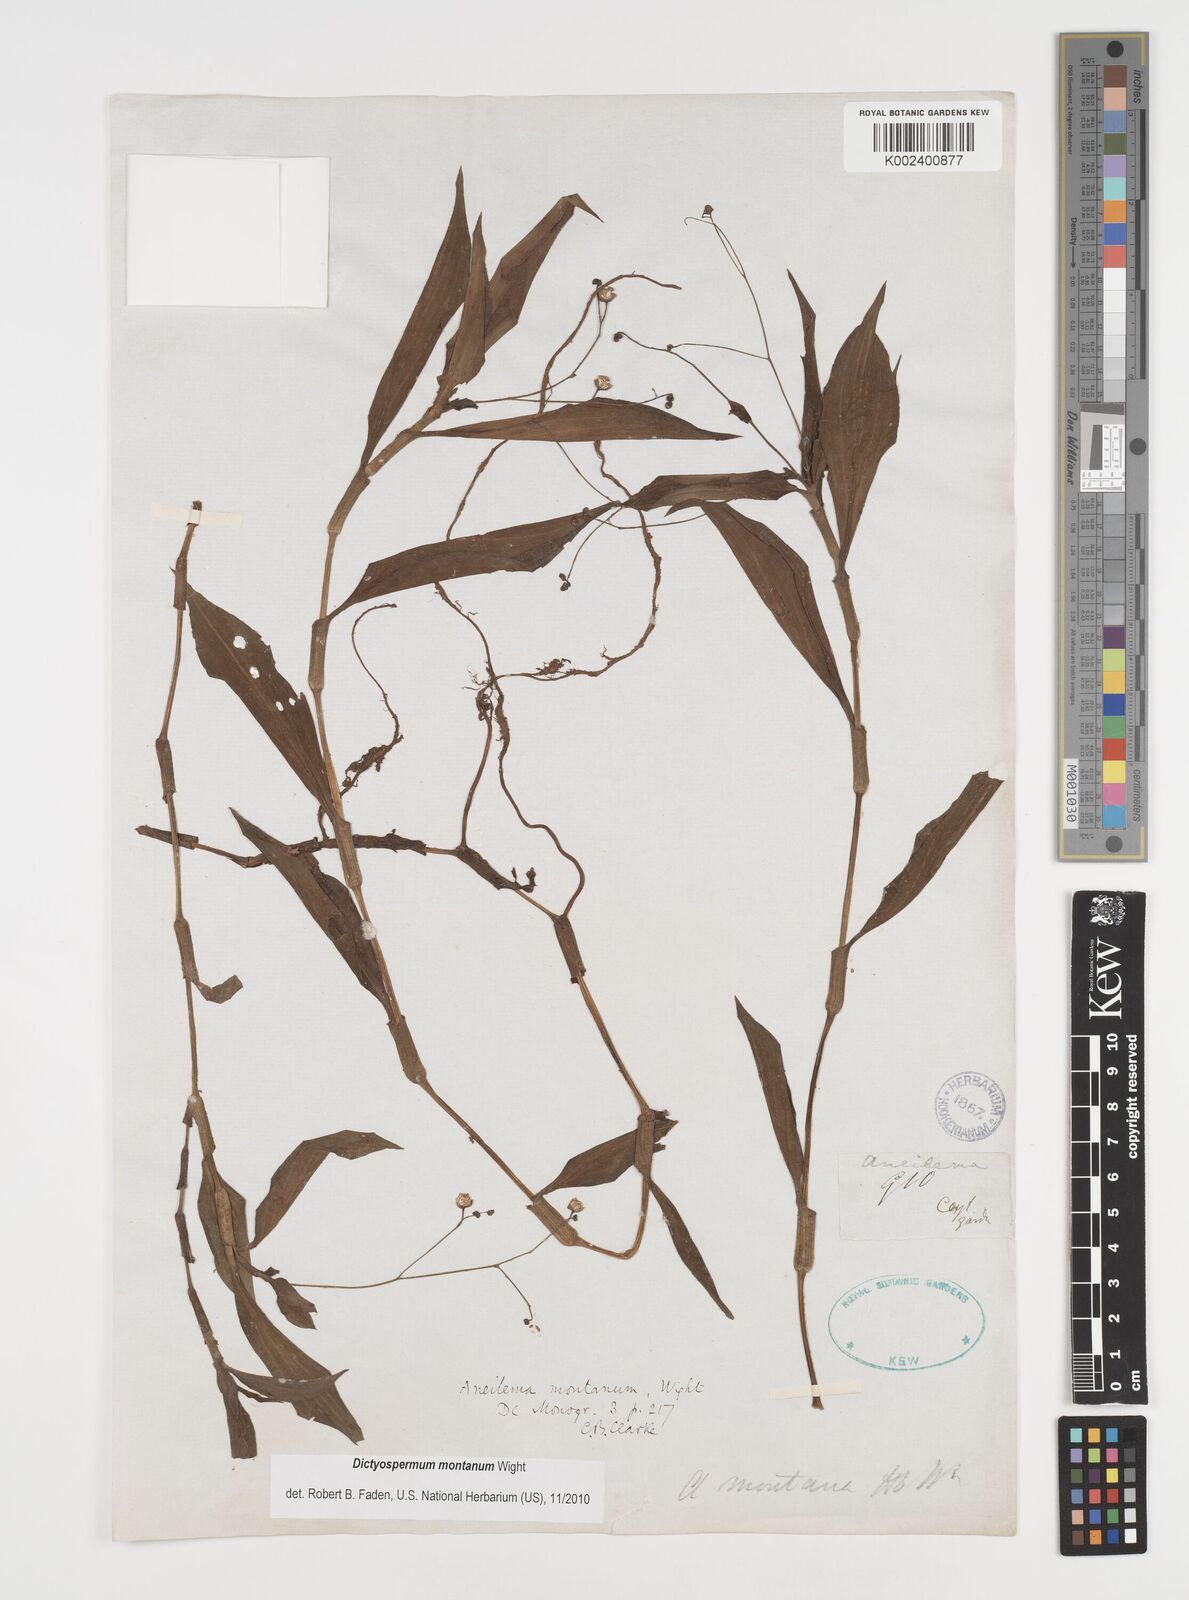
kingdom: Plantae
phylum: Tracheophyta
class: Liliopsida
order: Commelinales
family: Commelinaceae
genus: Dictyospermum
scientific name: Dictyospermum montanum
